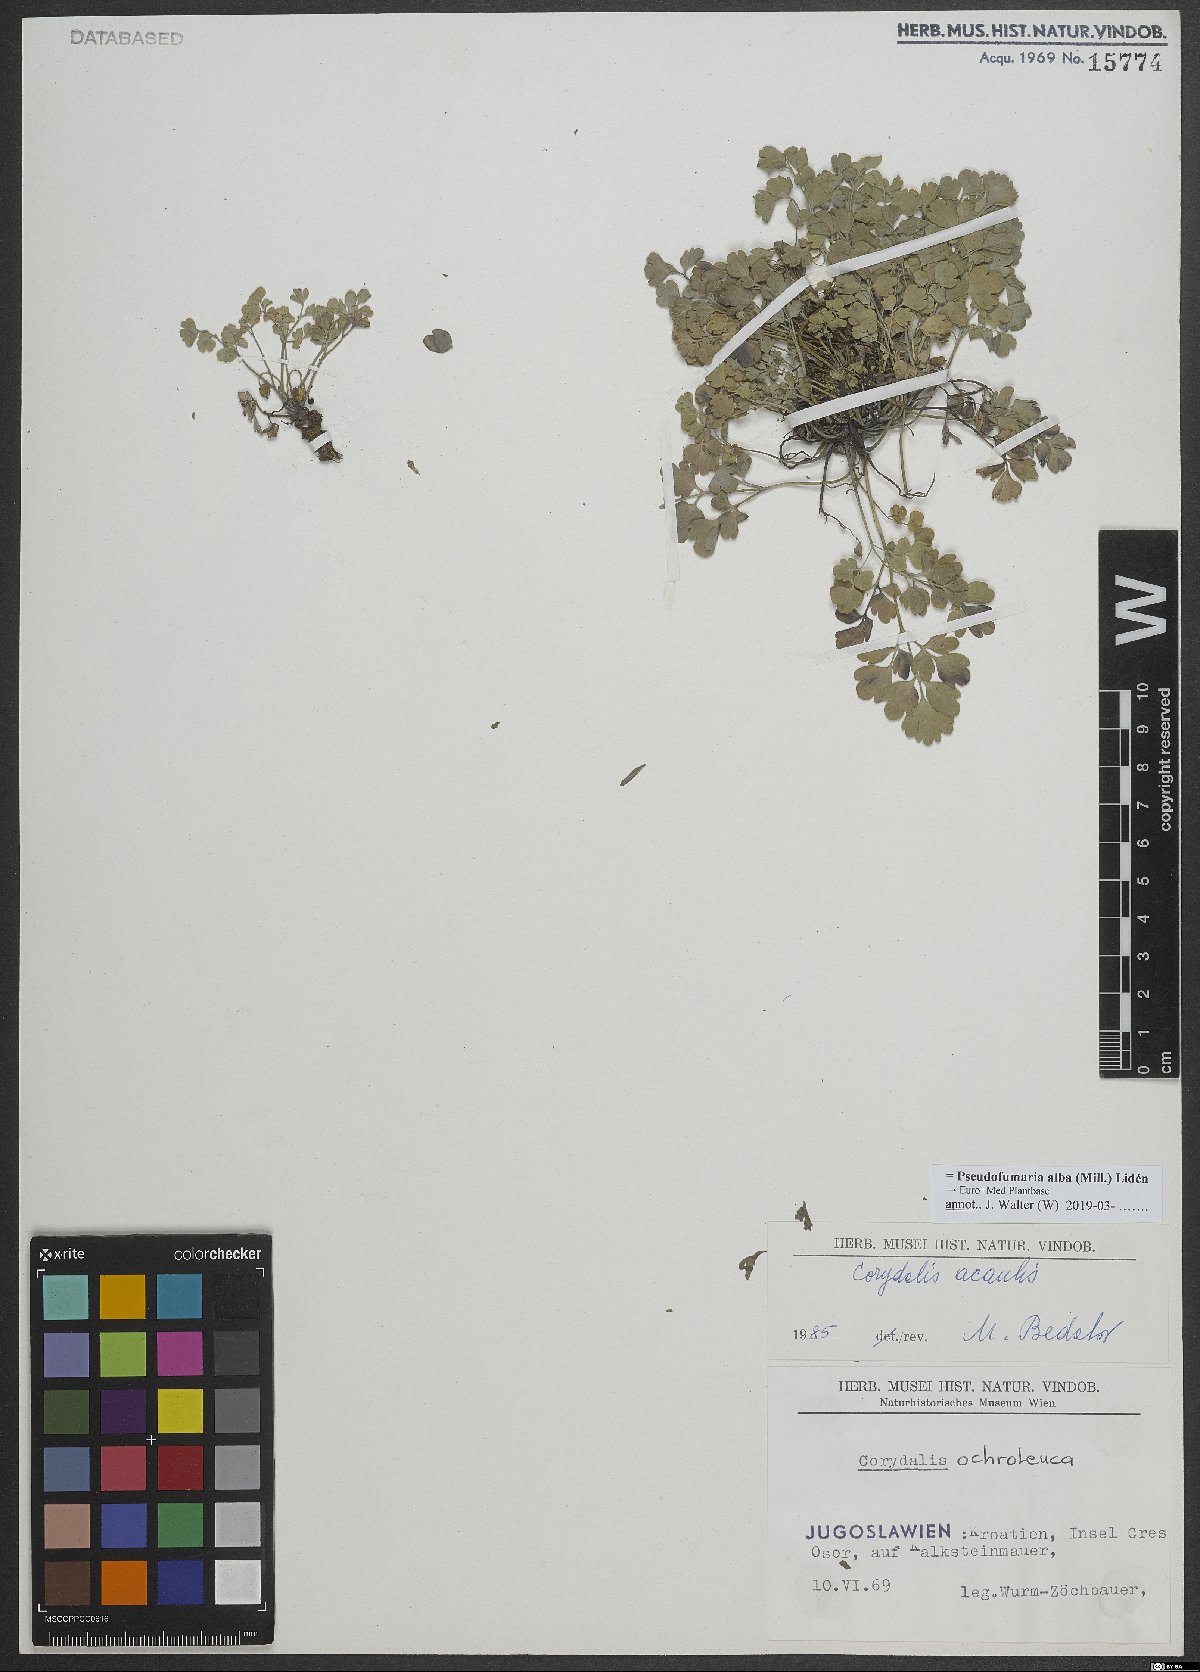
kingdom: Plantae
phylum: Tracheophyta
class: Magnoliopsida
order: Ranunculales
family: Papaveraceae
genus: Pseudofumaria
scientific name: Pseudofumaria alba
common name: Pale corydalis
